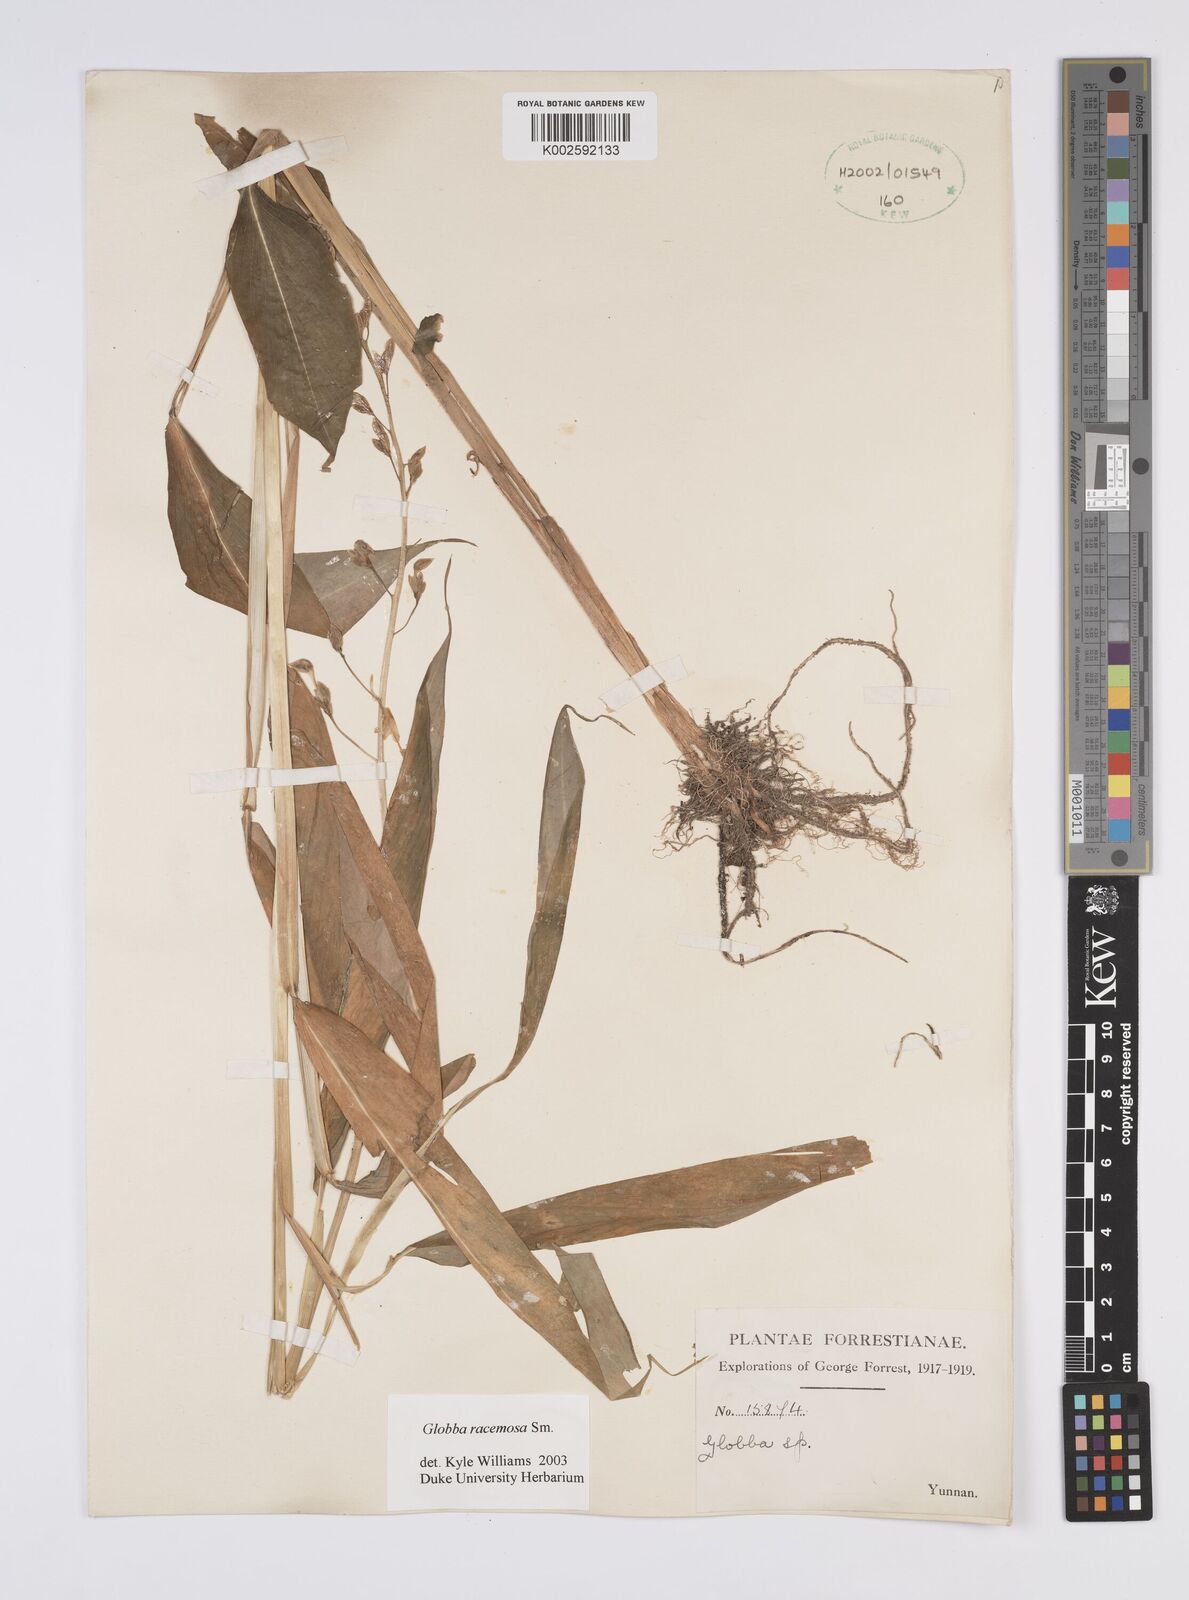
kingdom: Plantae
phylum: Tracheophyta
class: Liliopsida
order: Zingiberales
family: Zingiberaceae
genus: Globba
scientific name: Globba racemosa
